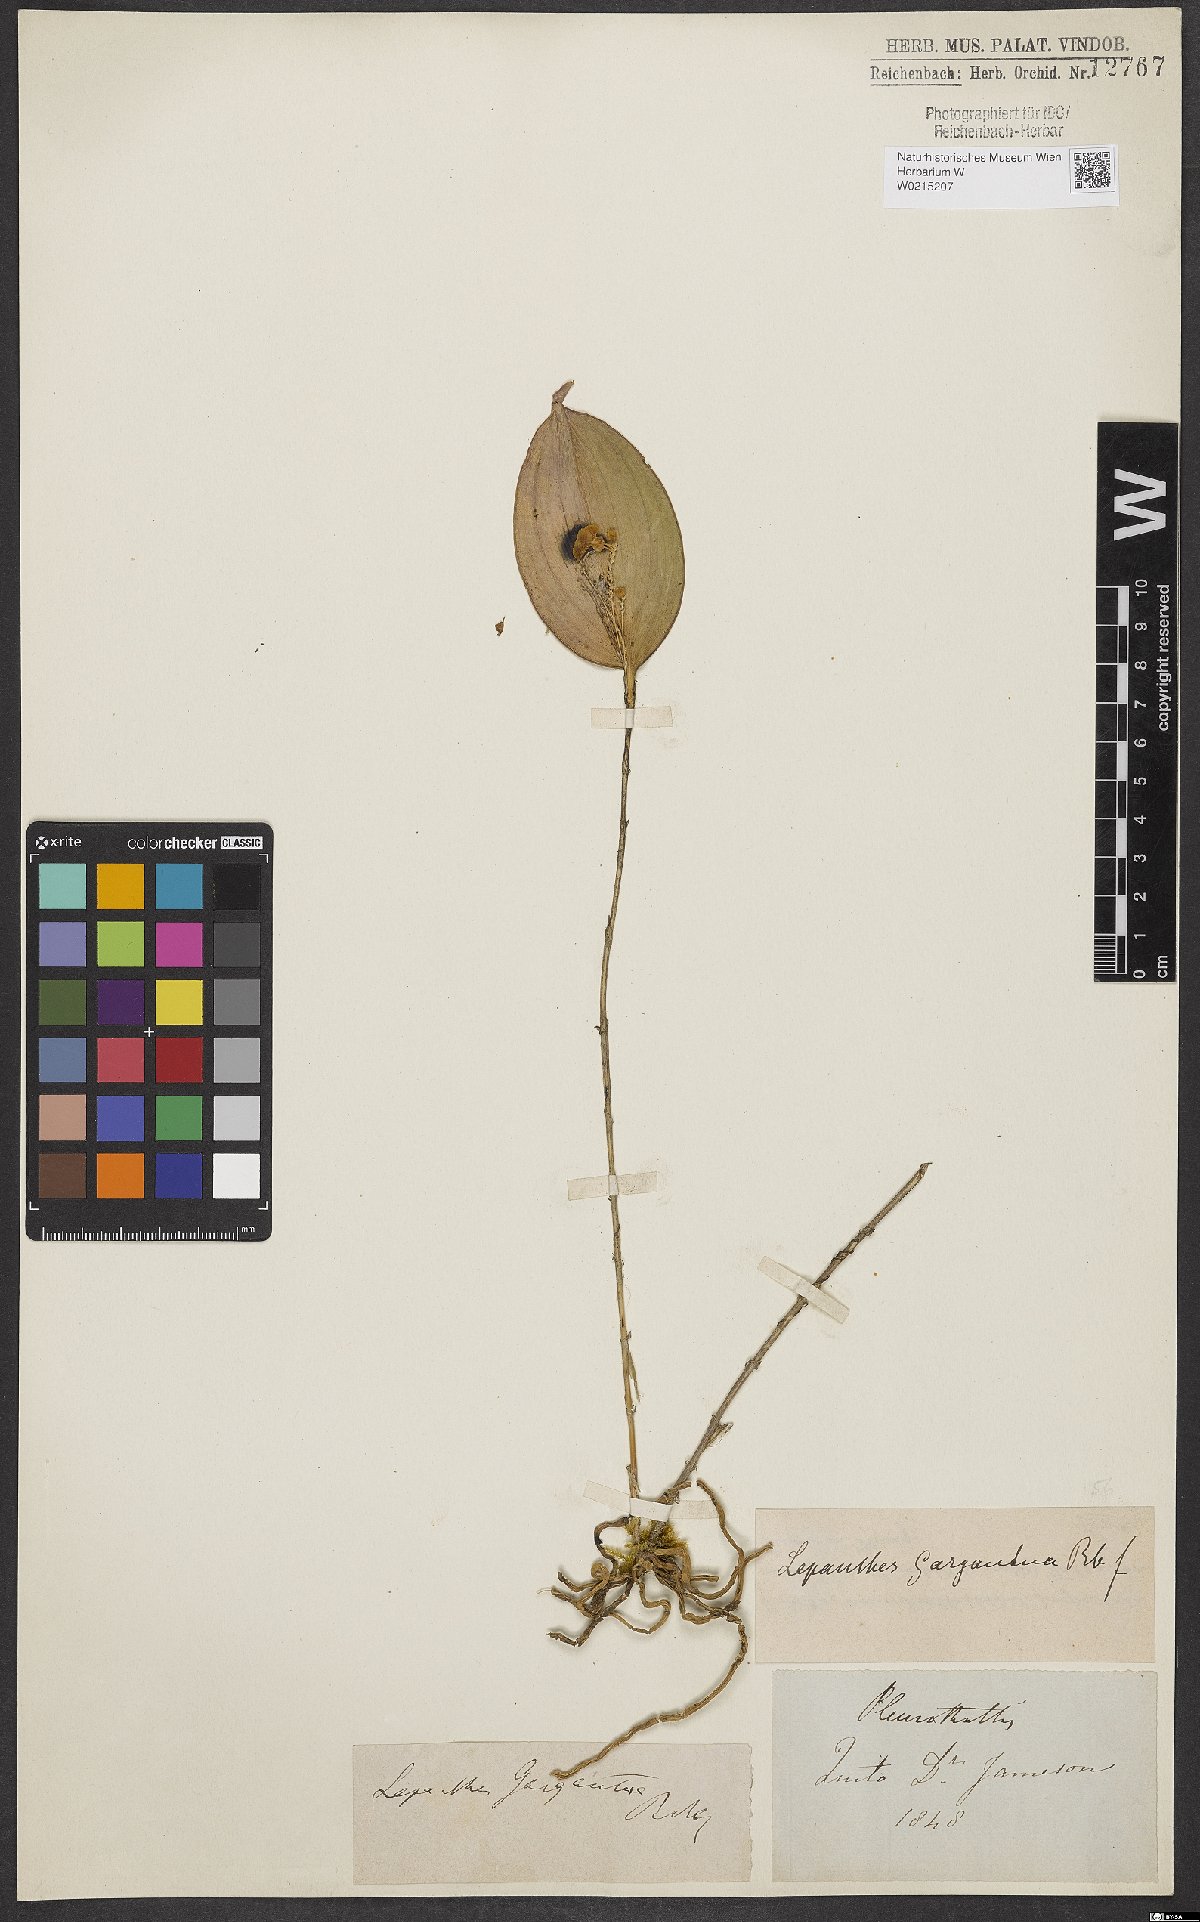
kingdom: Plantae
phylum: Tracheophyta
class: Liliopsida
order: Asparagales
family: Orchidaceae
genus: Lepanthes
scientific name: Lepanthes
